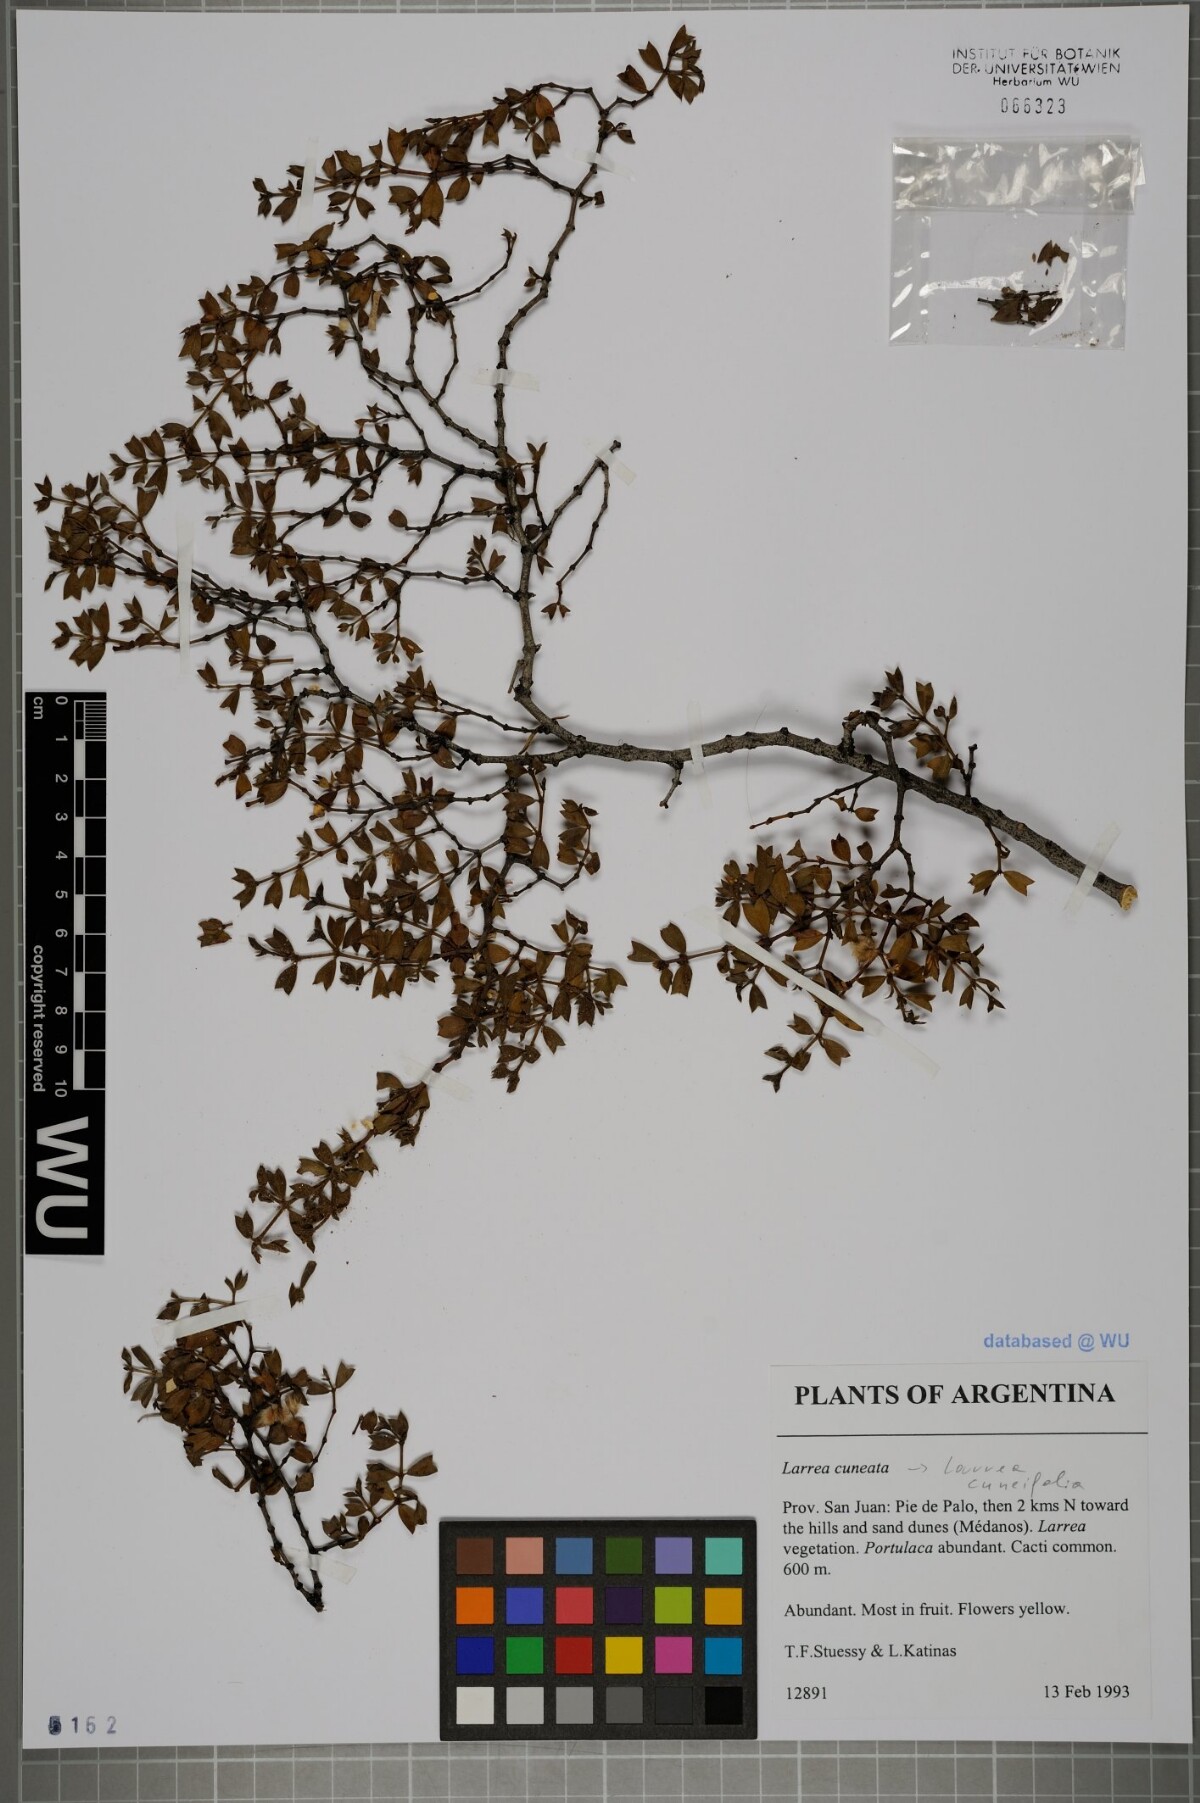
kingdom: Plantae
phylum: Tracheophyta
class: Magnoliopsida
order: Zygophyllales
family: Zygophyllaceae
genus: Larrea
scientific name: Larrea cuneifolia
